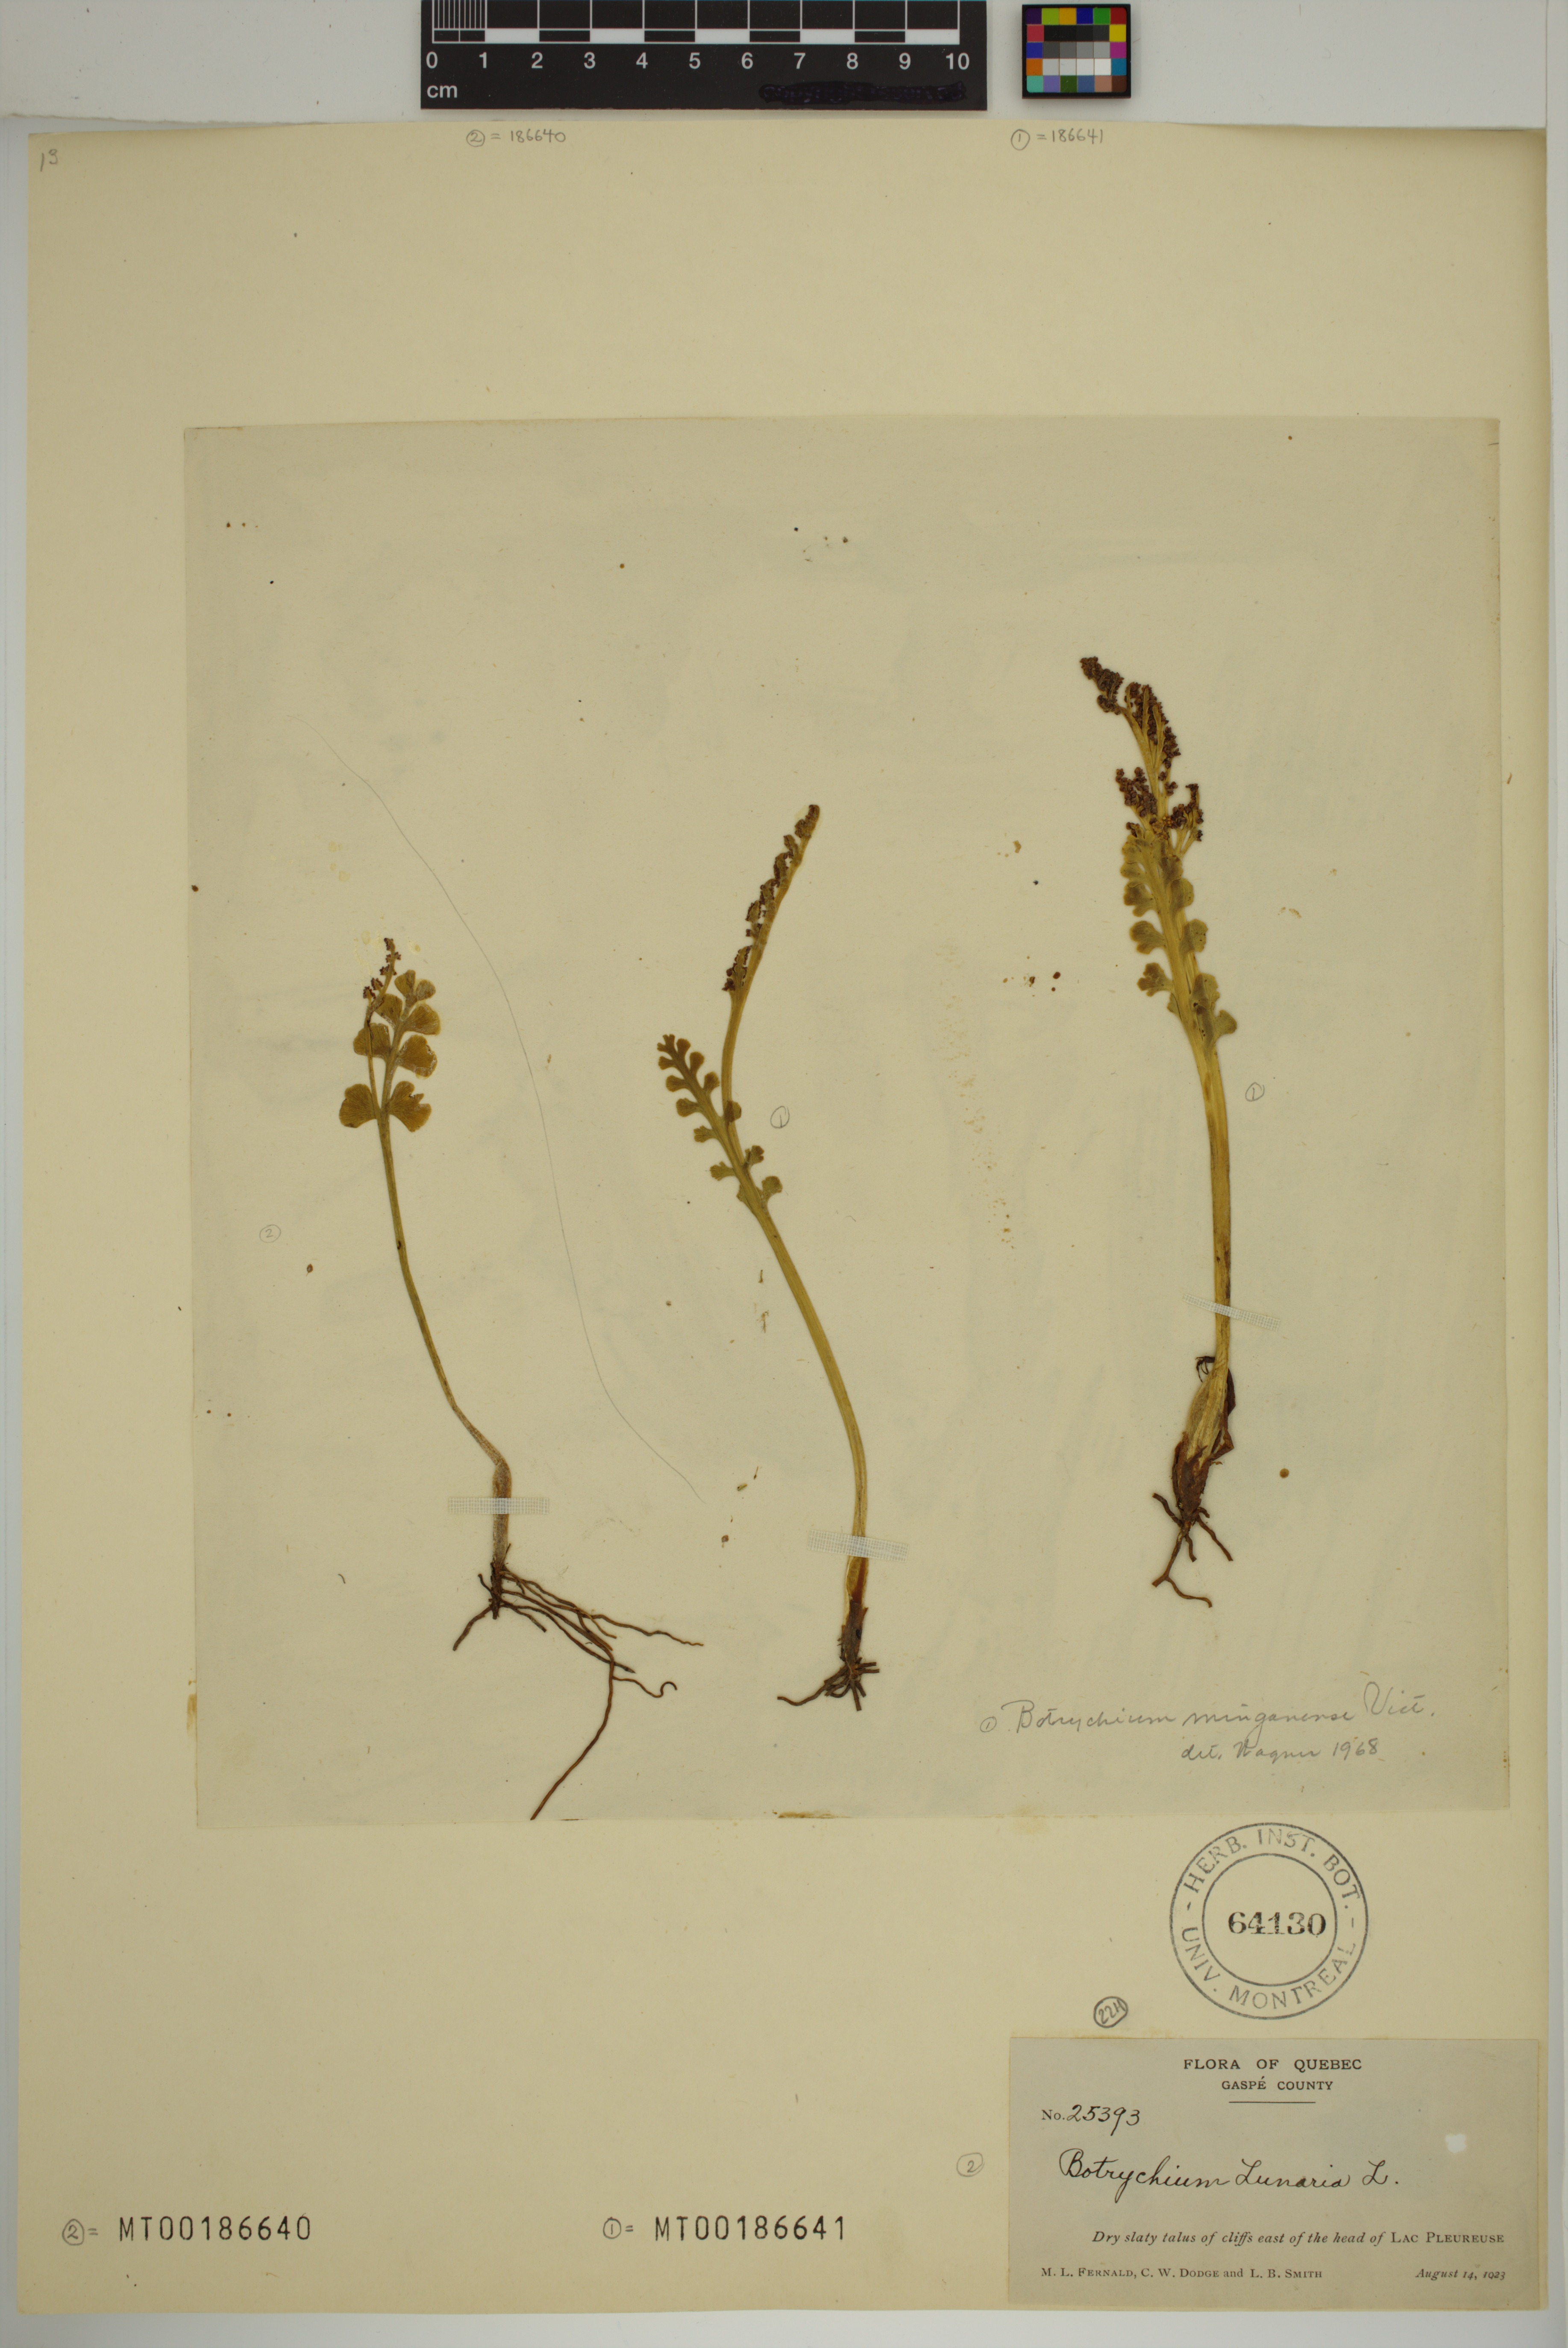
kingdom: Plantae
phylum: Tracheophyta
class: Polypodiopsida
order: Ophioglossales
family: Ophioglossaceae
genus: Botrychium
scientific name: Botrychium minganense
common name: Mingan grapefern
